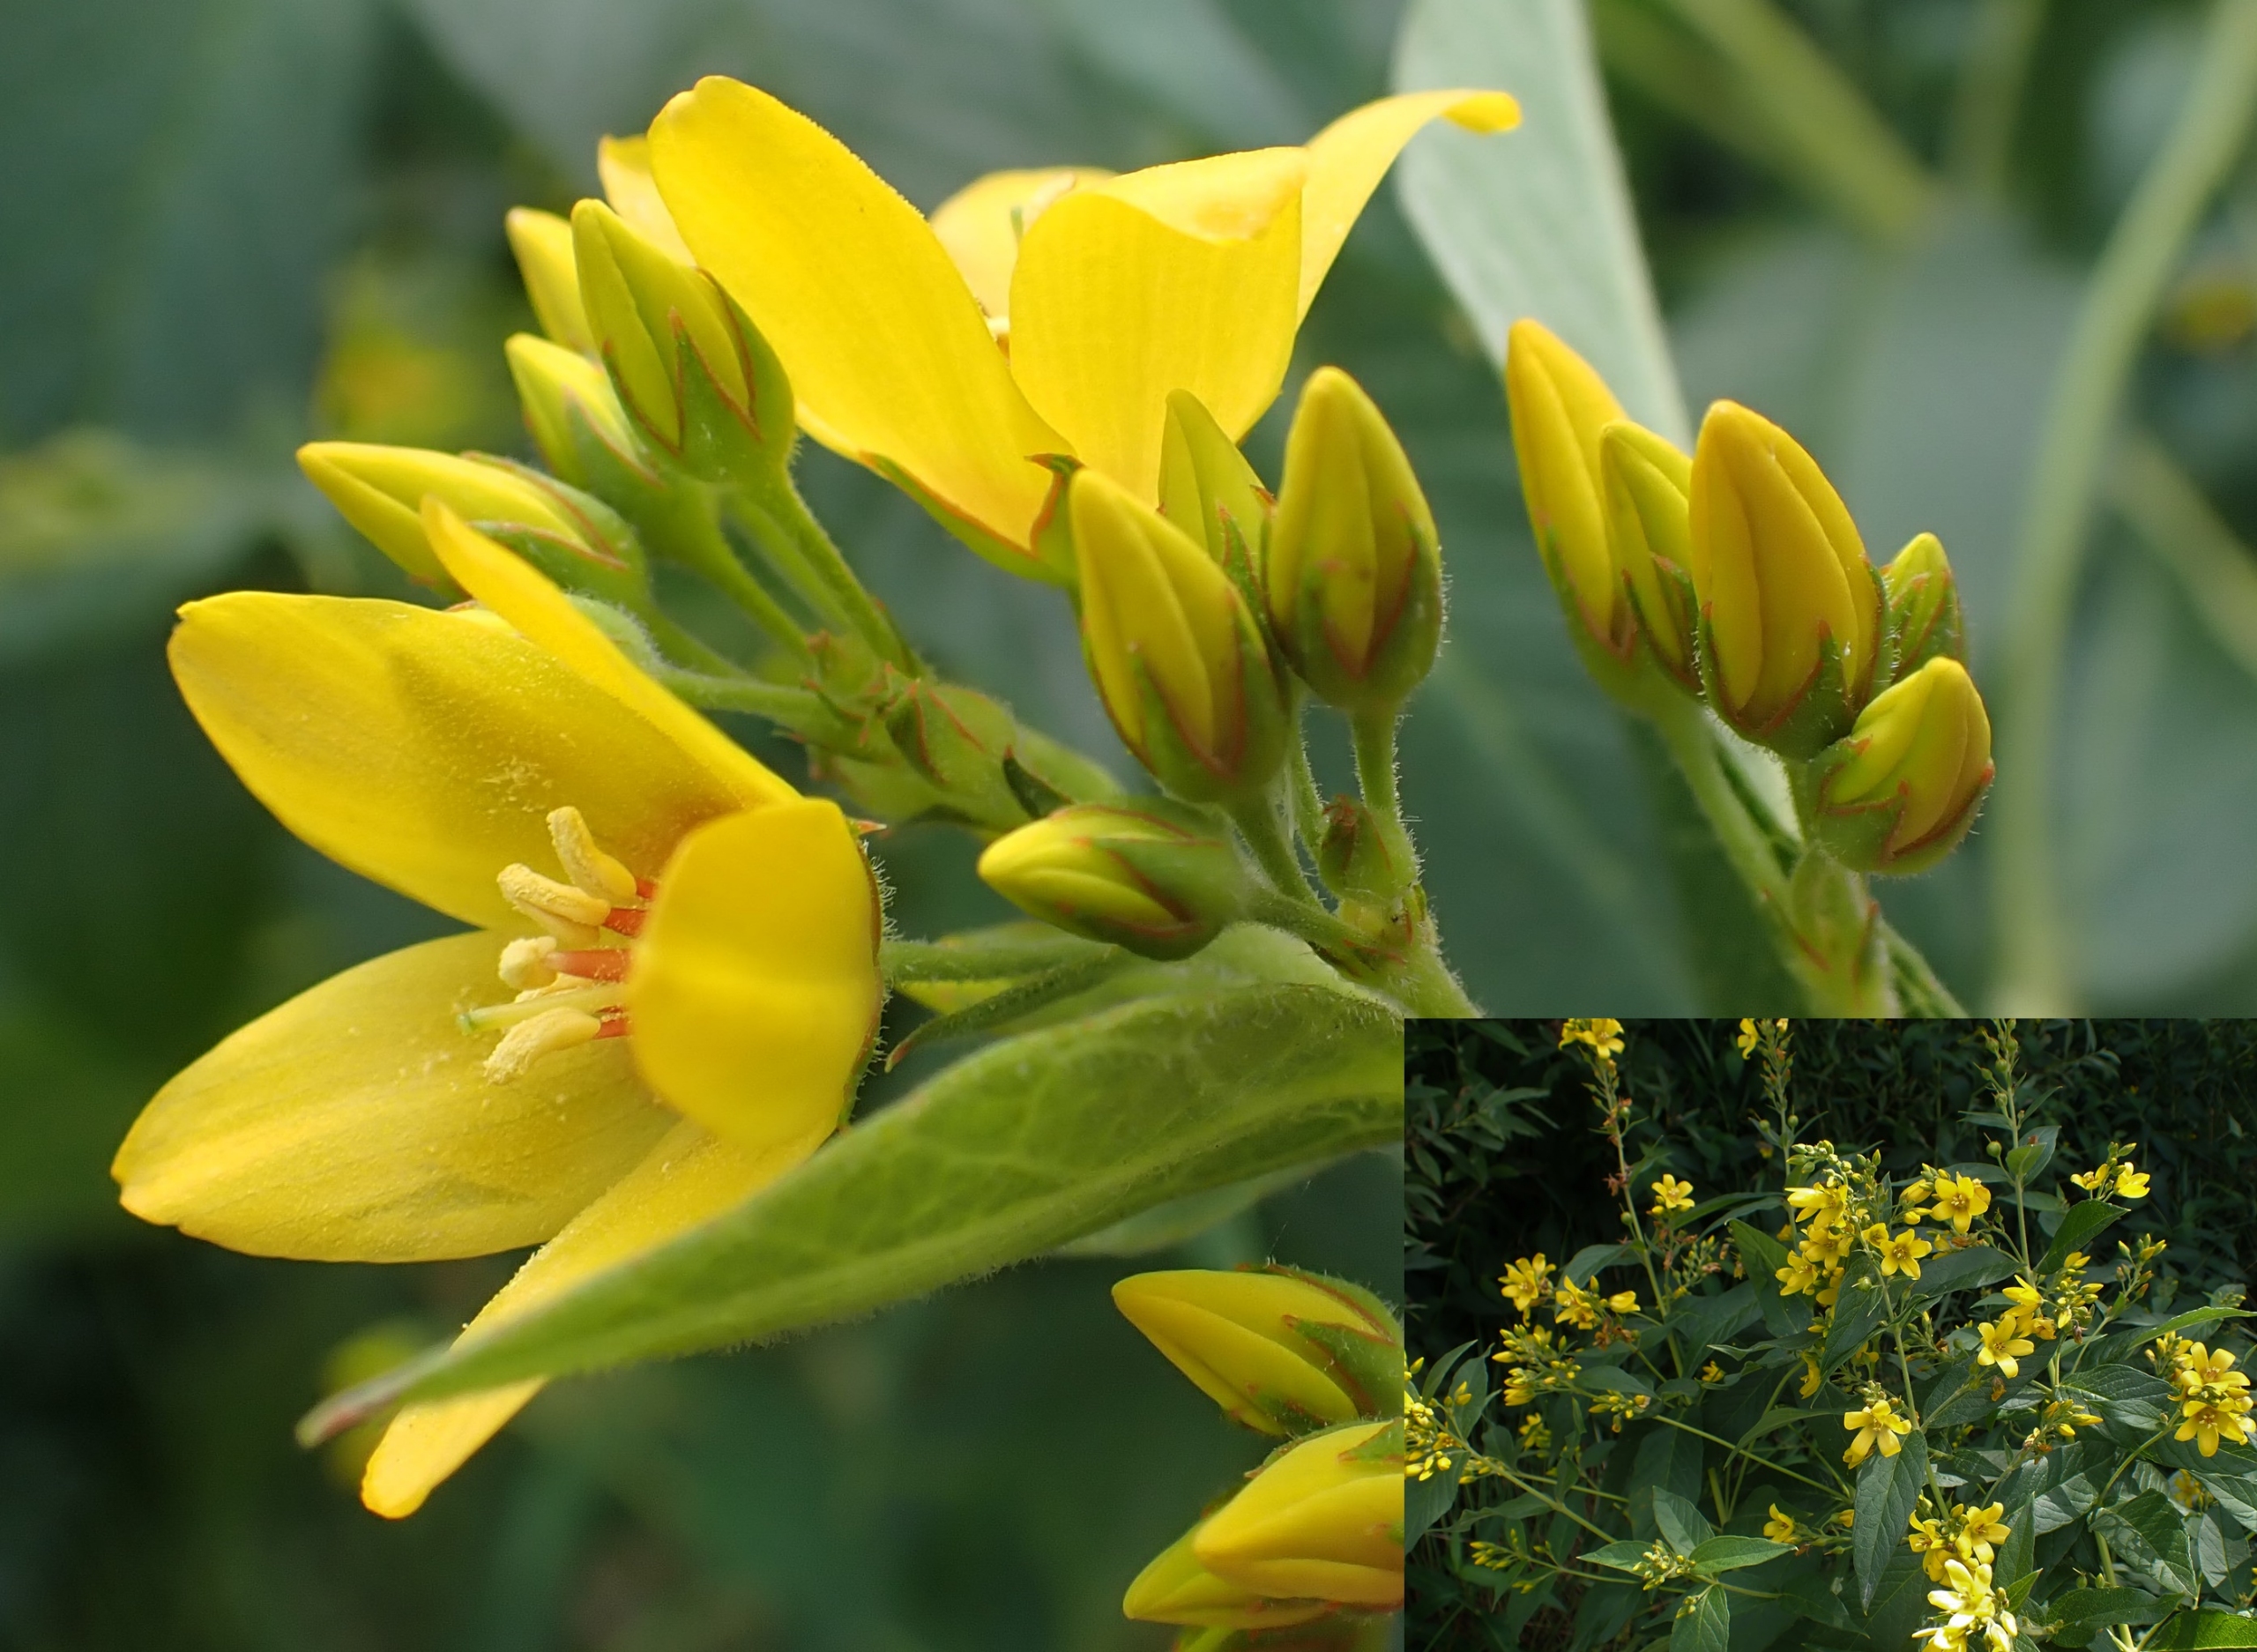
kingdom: Plantae
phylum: Tracheophyta
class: Magnoliopsida
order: Ericales
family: Primulaceae
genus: Lysimachia
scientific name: Lysimachia vulgaris
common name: Almindelig fredløs
